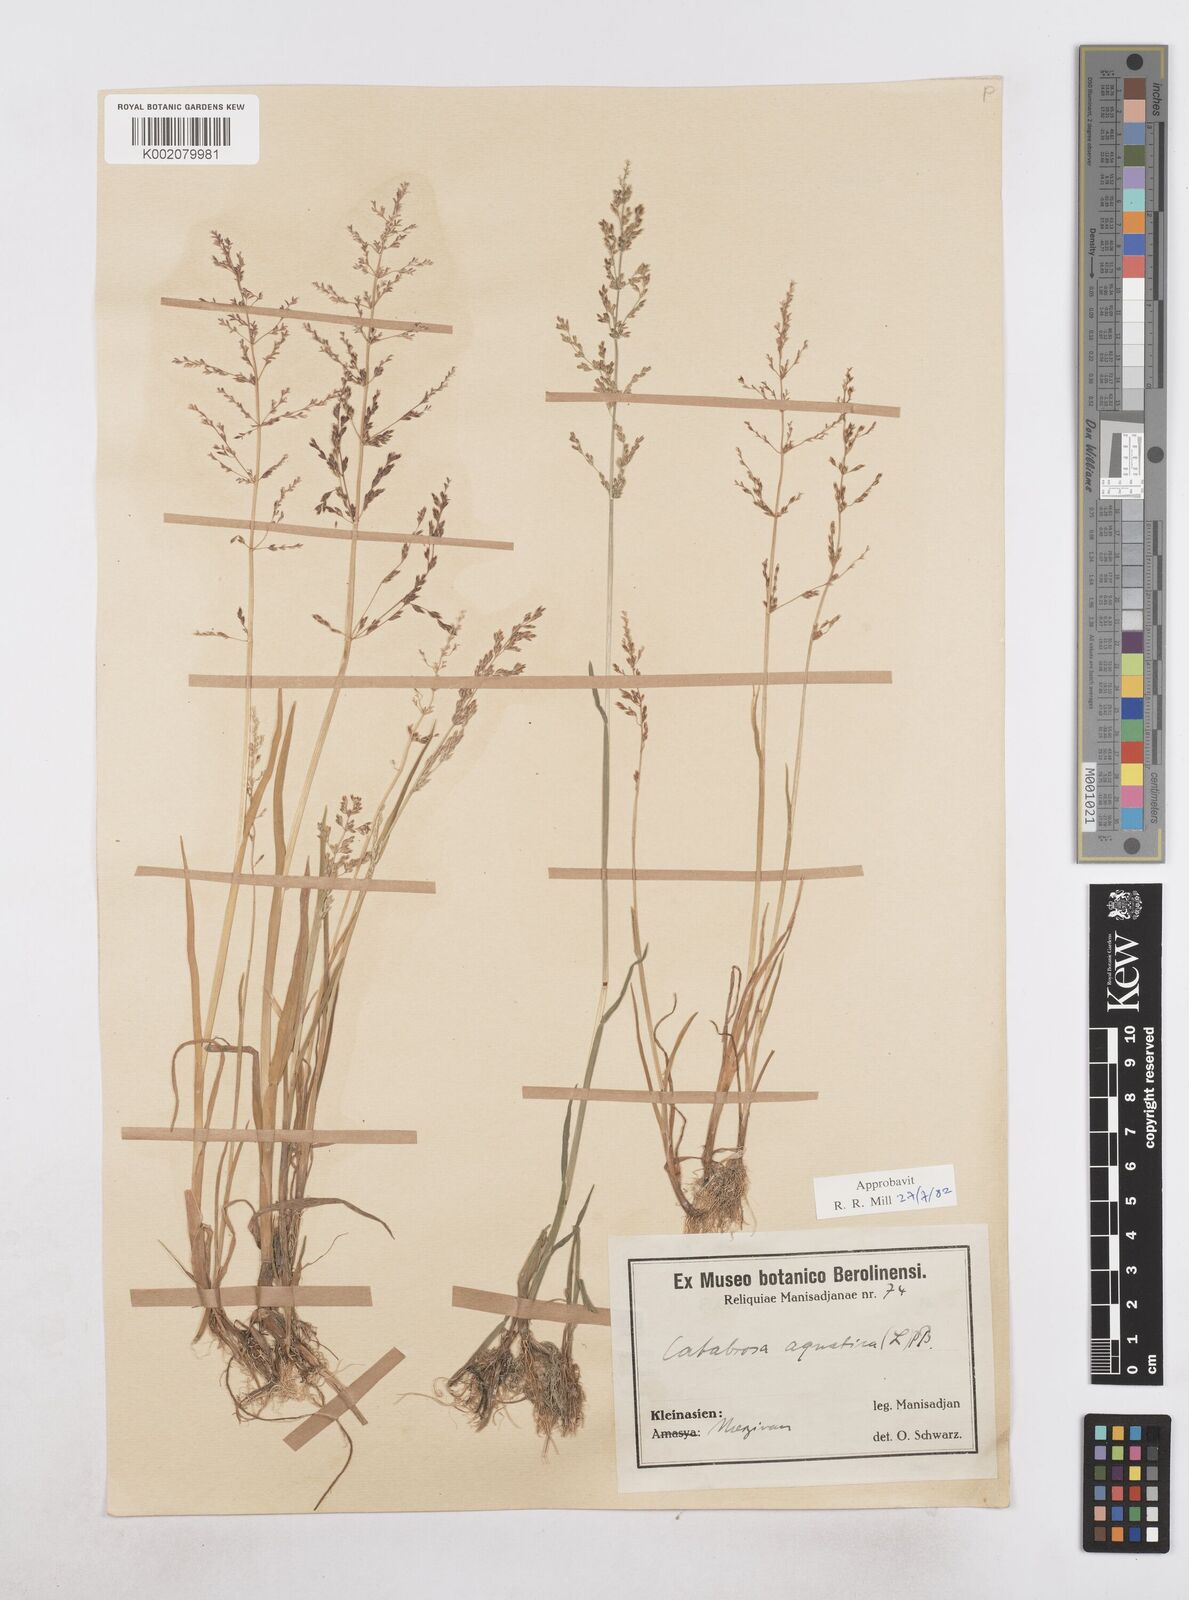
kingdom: Plantae
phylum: Tracheophyta
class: Liliopsida
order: Poales
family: Poaceae
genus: Catabrosa
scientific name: Catabrosa aquatica
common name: Whorl-grass
